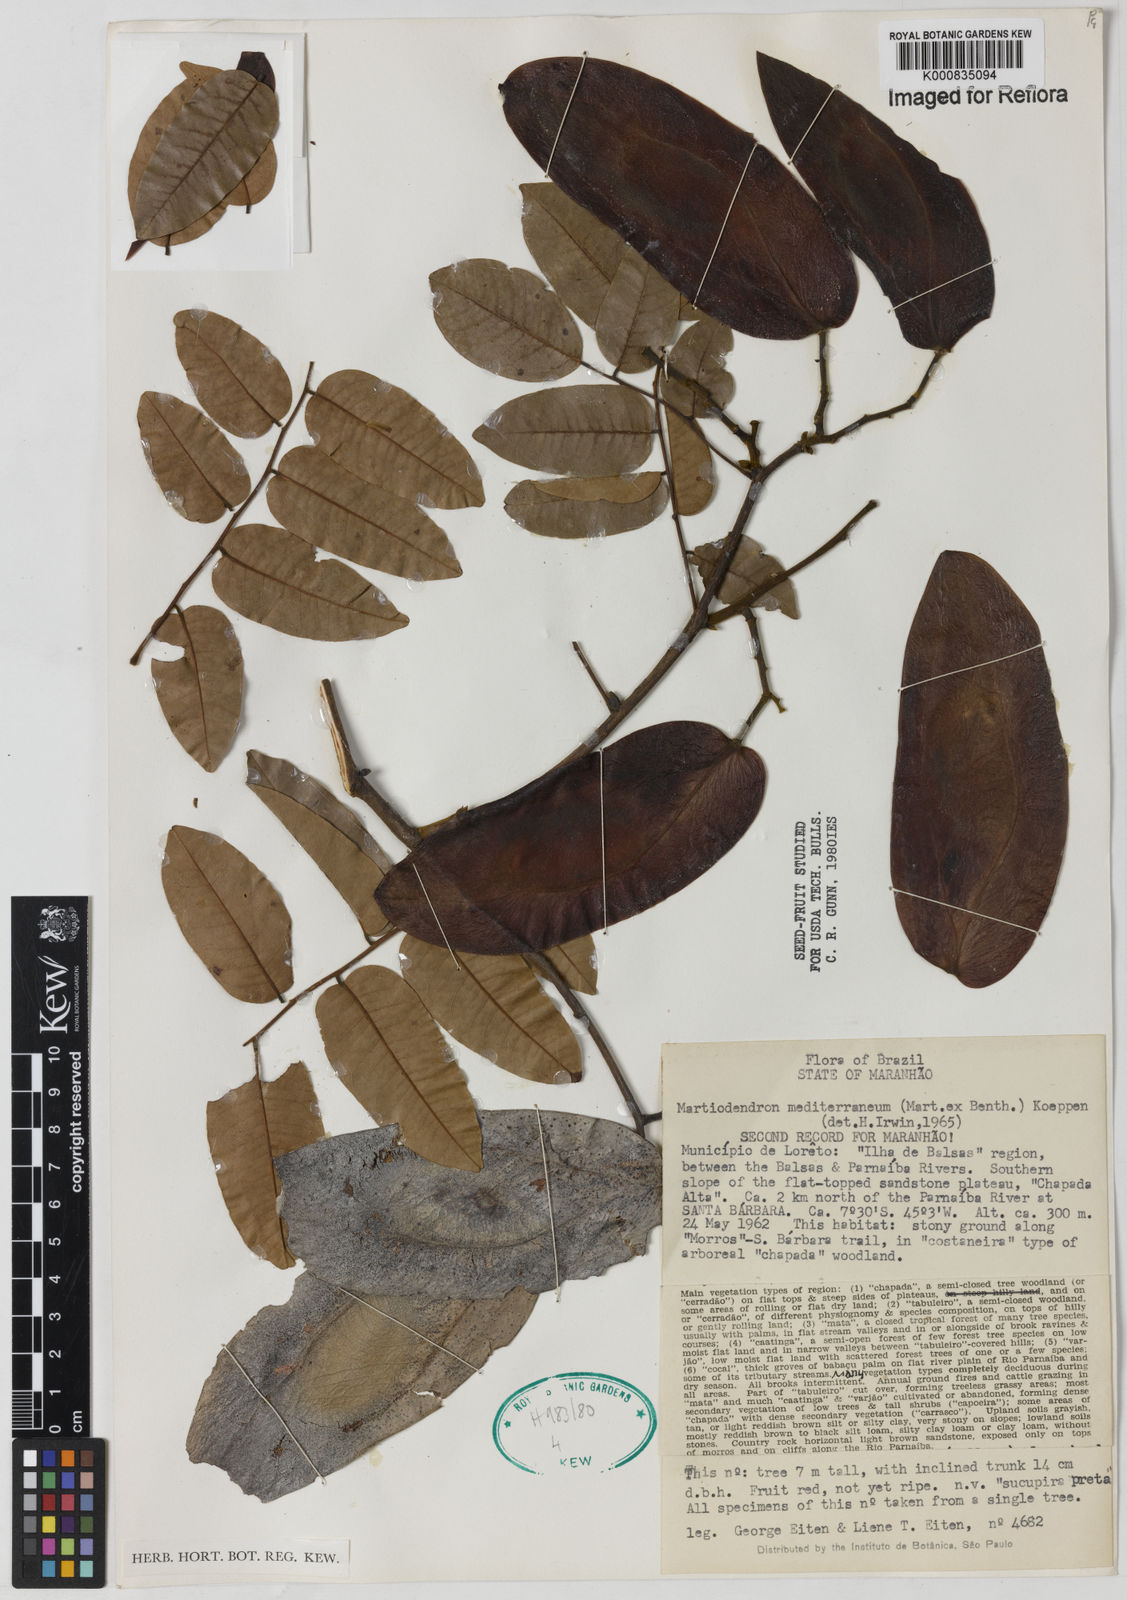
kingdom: Plantae
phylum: Tracheophyta
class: Magnoliopsida
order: Fabales
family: Fabaceae
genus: Martiodendron
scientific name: Martiodendron
